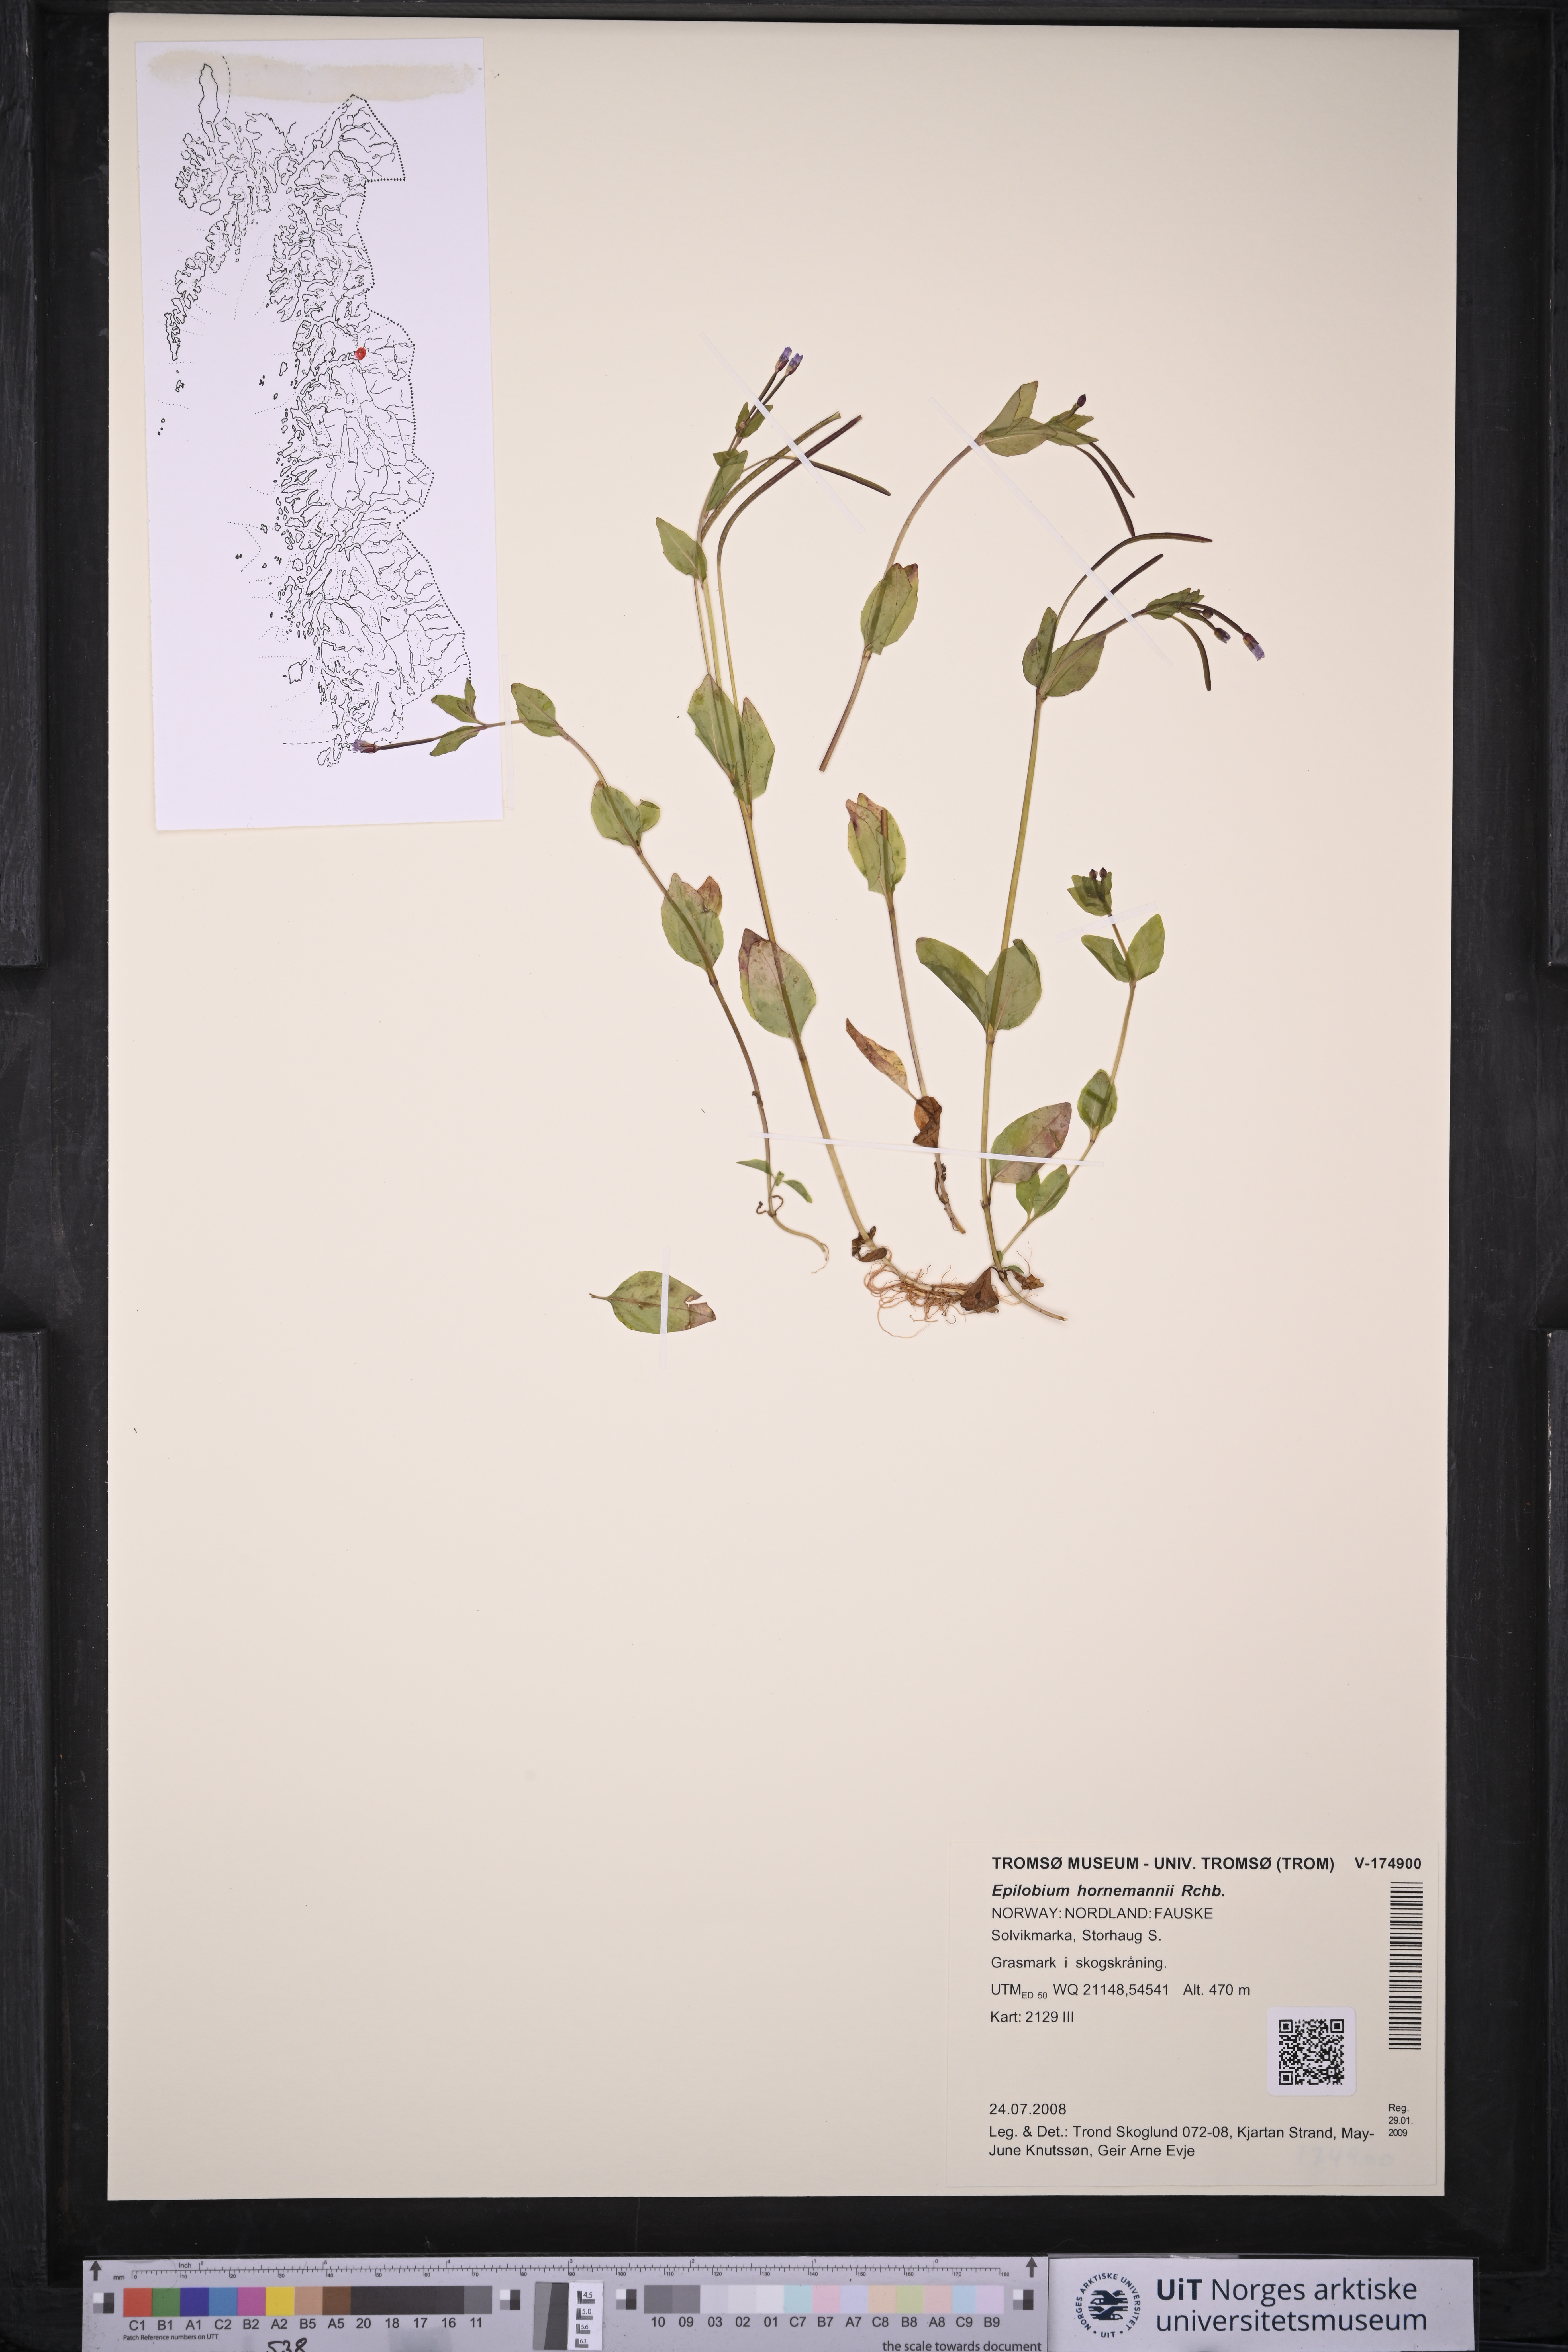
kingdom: Plantae
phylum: Tracheophyta
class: Magnoliopsida
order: Myrtales
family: Onagraceae
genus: Epilobium
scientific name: Epilobium hornemannii
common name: Hornemann's willowherb
